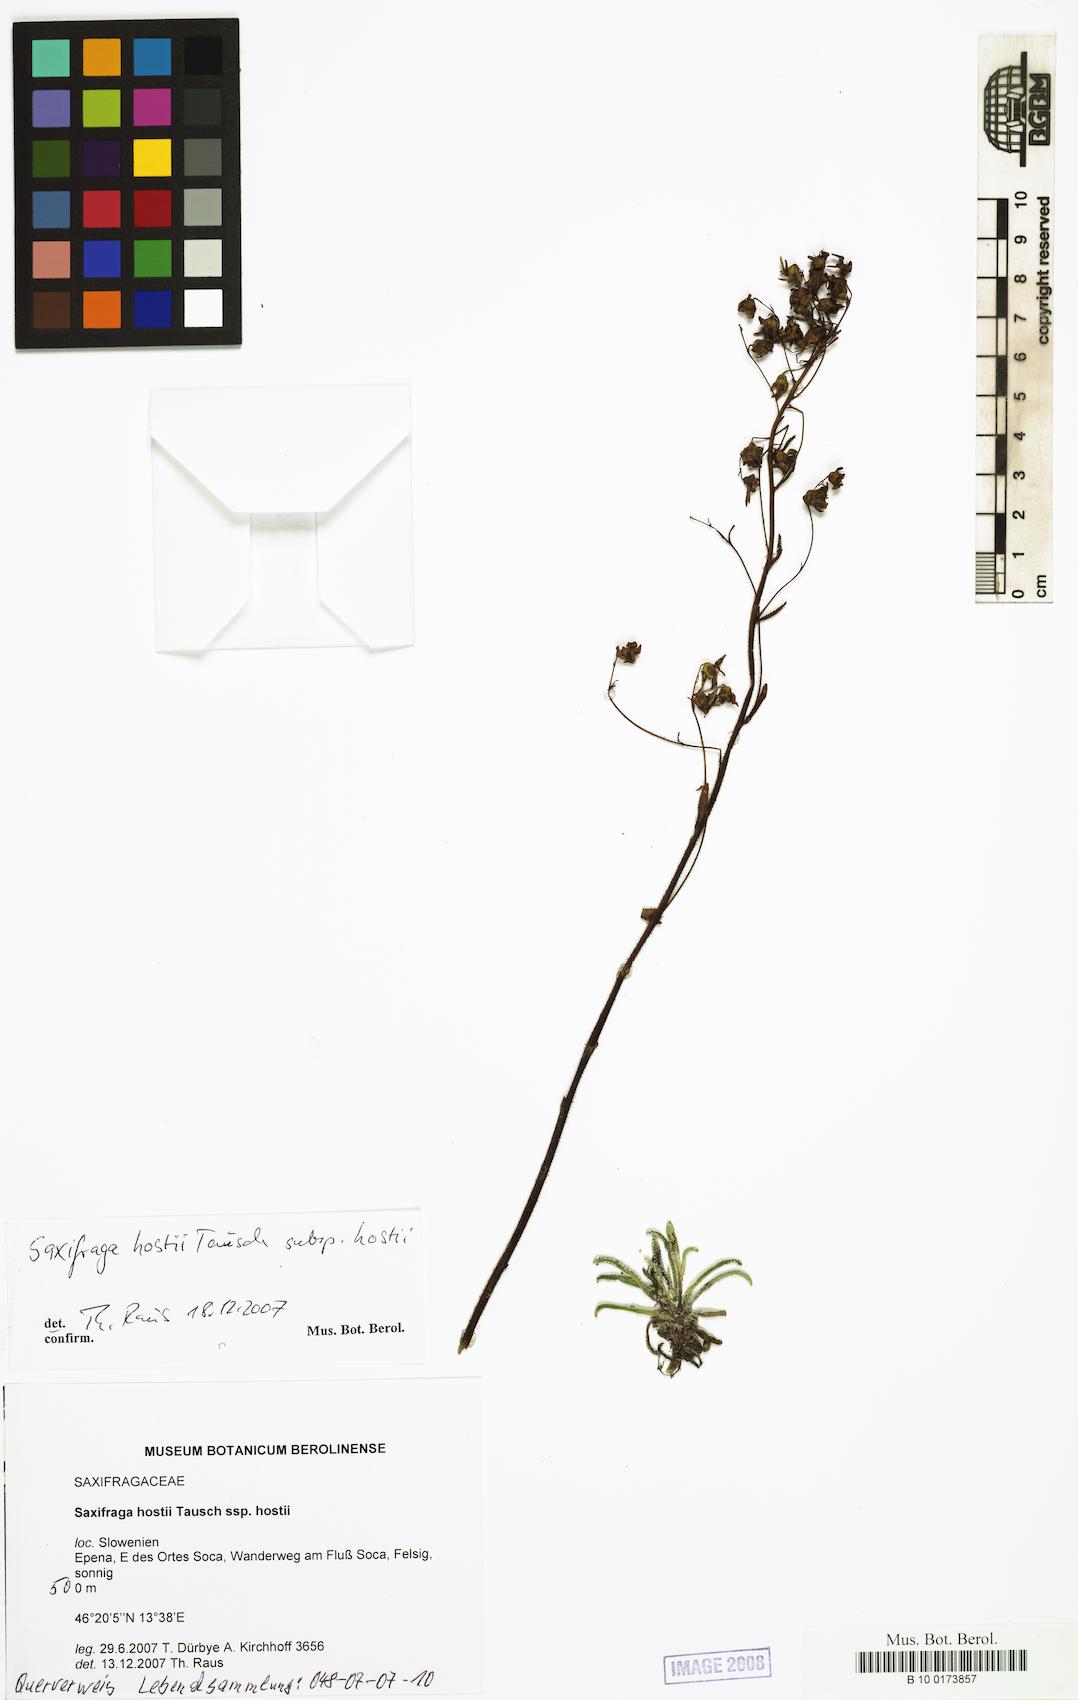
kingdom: Plantae
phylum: Tracheophyta
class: Magnoliopsida
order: Saxifragales
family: Saxifragaceae
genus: Saxifraga
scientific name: Saxifraga hostii
